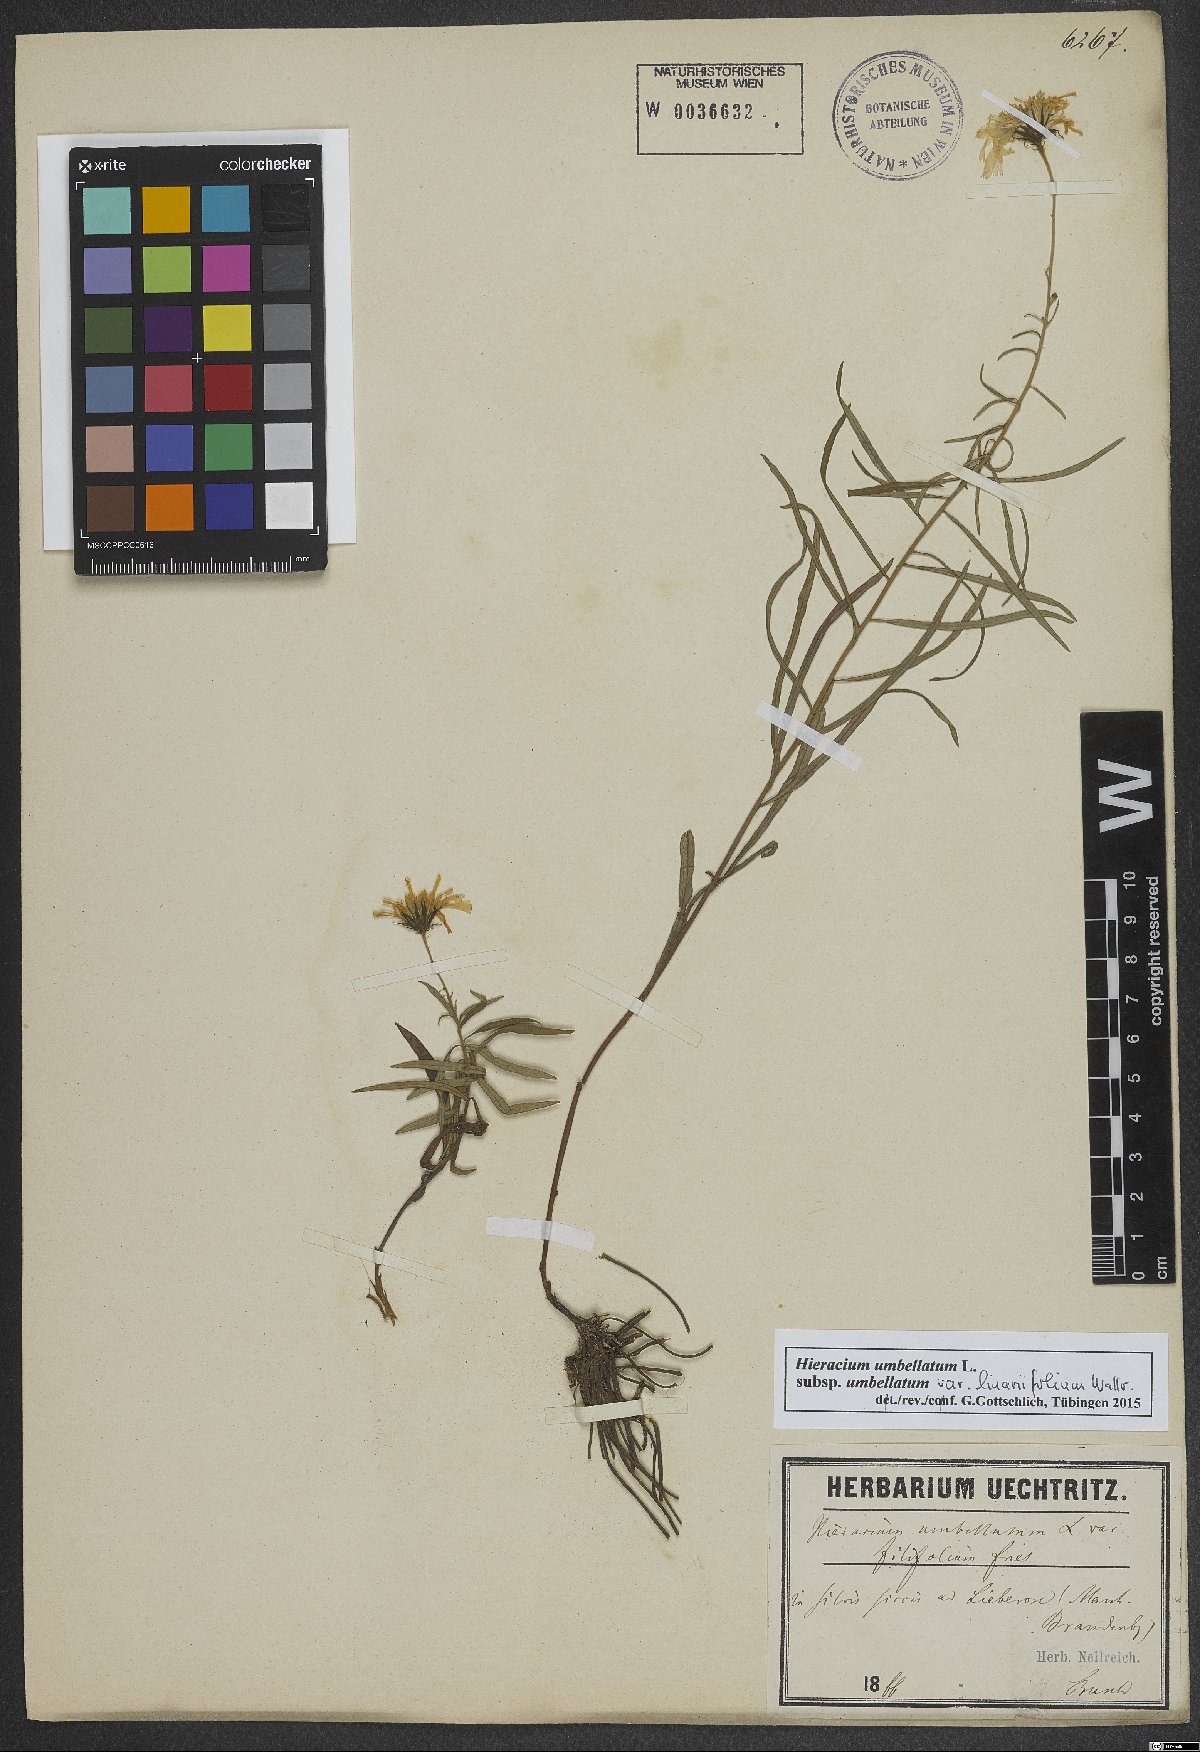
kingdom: Plantae
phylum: Tracheophyta
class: Magnoliopsida
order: Asterales
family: Asteraceae
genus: Hieracium
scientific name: Hieracium umbellatum
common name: Northern hawkweed
